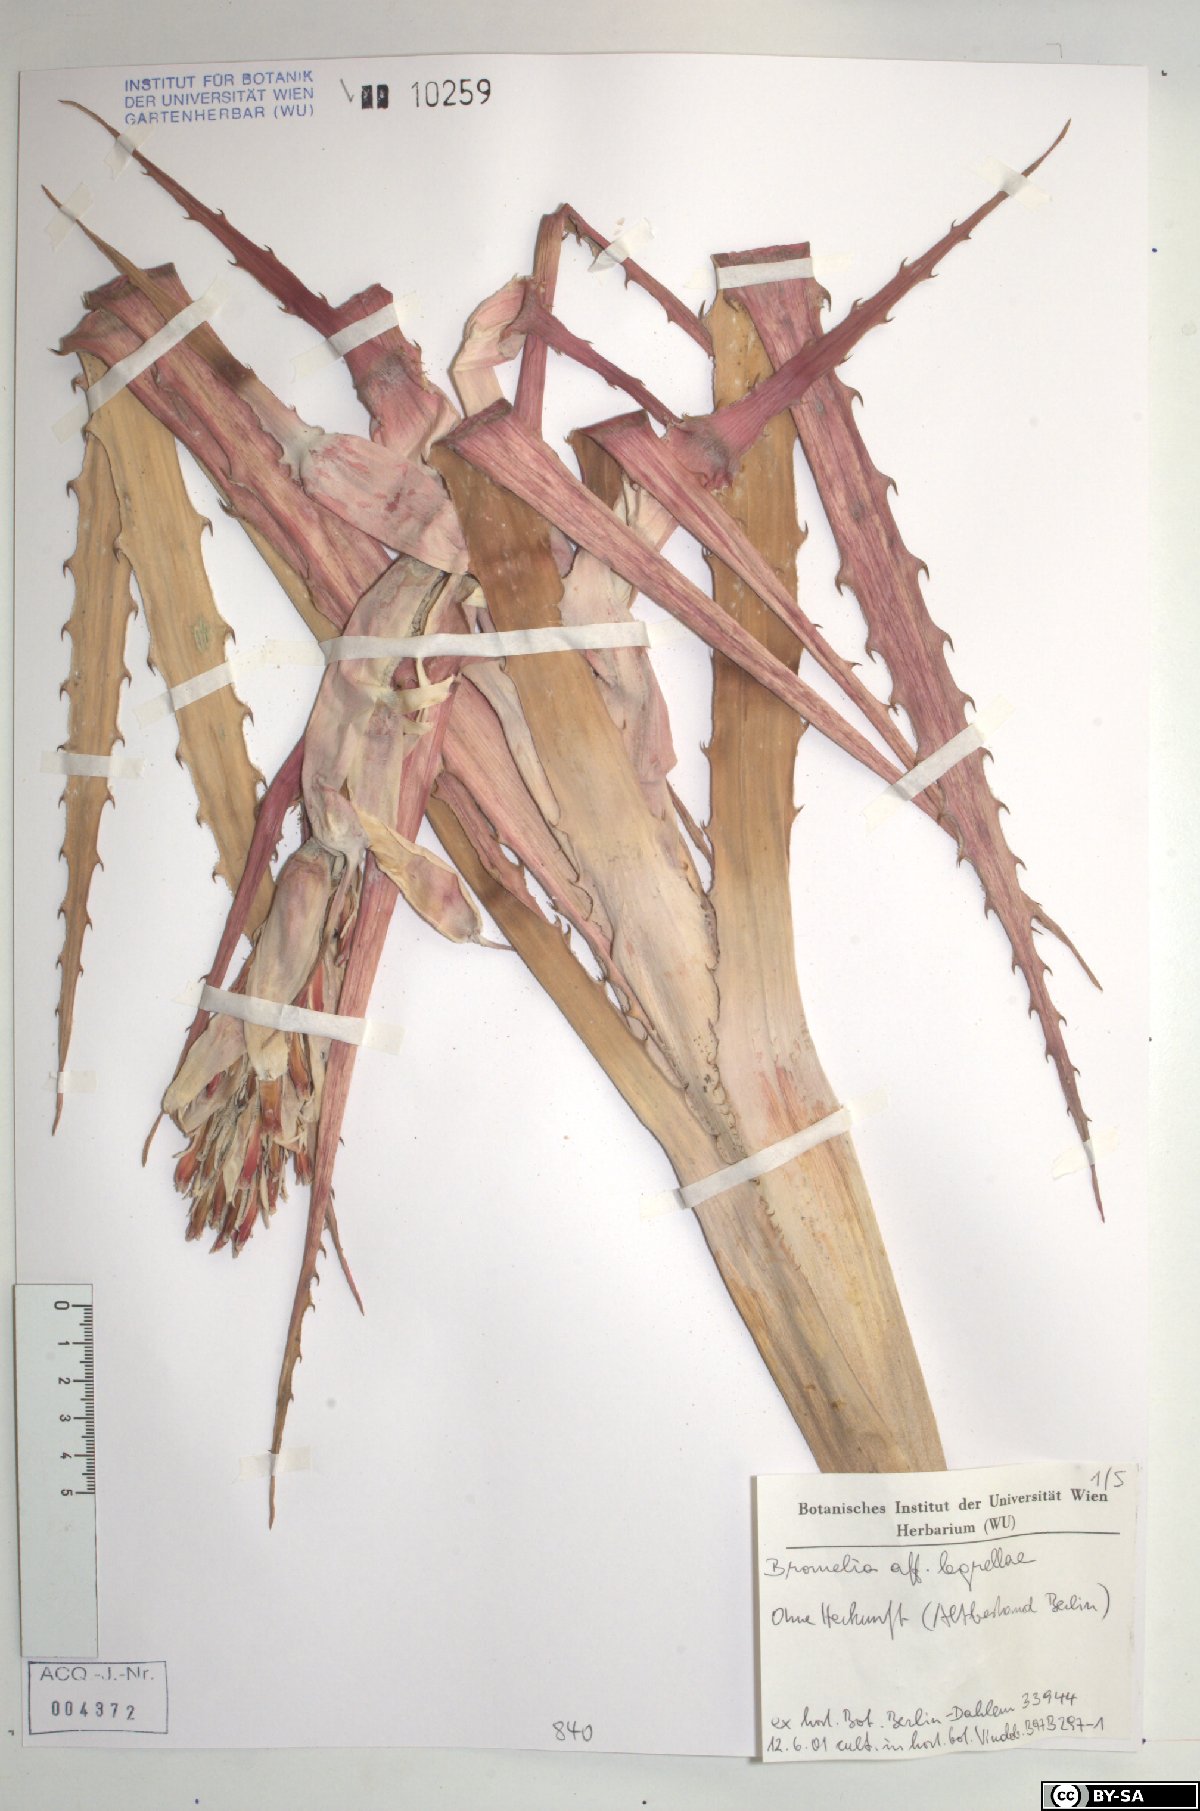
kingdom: Plantae
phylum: Tracheophyta
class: Liliopsida
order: Poales
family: Bromeliaceae
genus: Bromelia
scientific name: Bromelia legrellae
